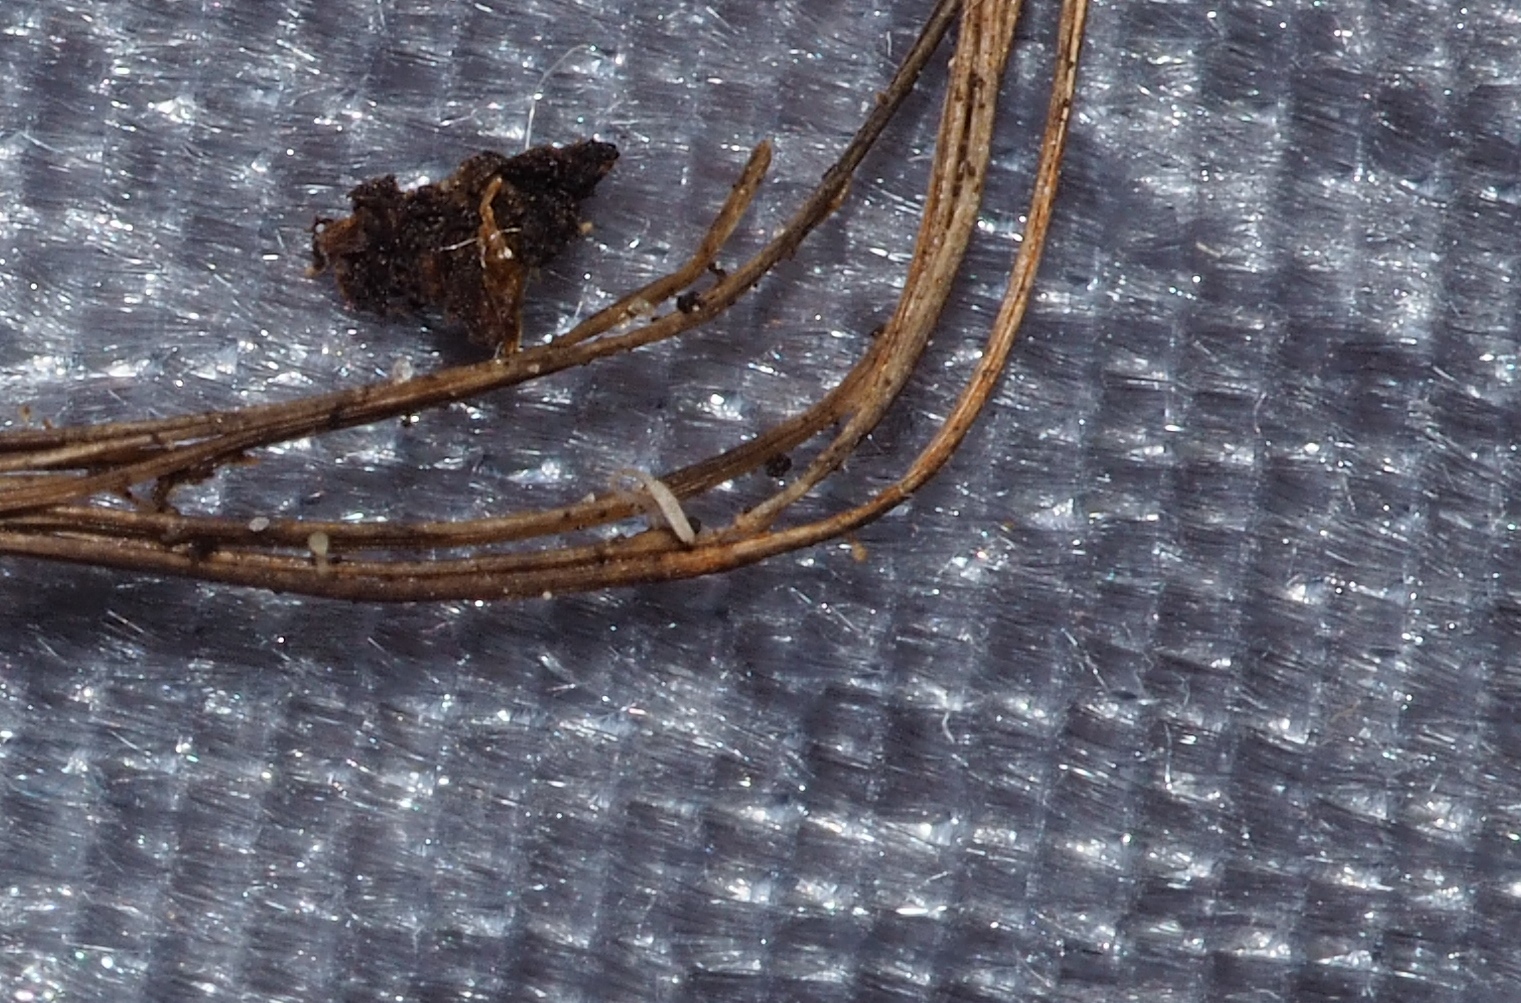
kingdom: Fungi
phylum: Basidiomycota
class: Agaricomycetes
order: Agaricales
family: Typhulaceae
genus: Typhula
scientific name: Typhula
